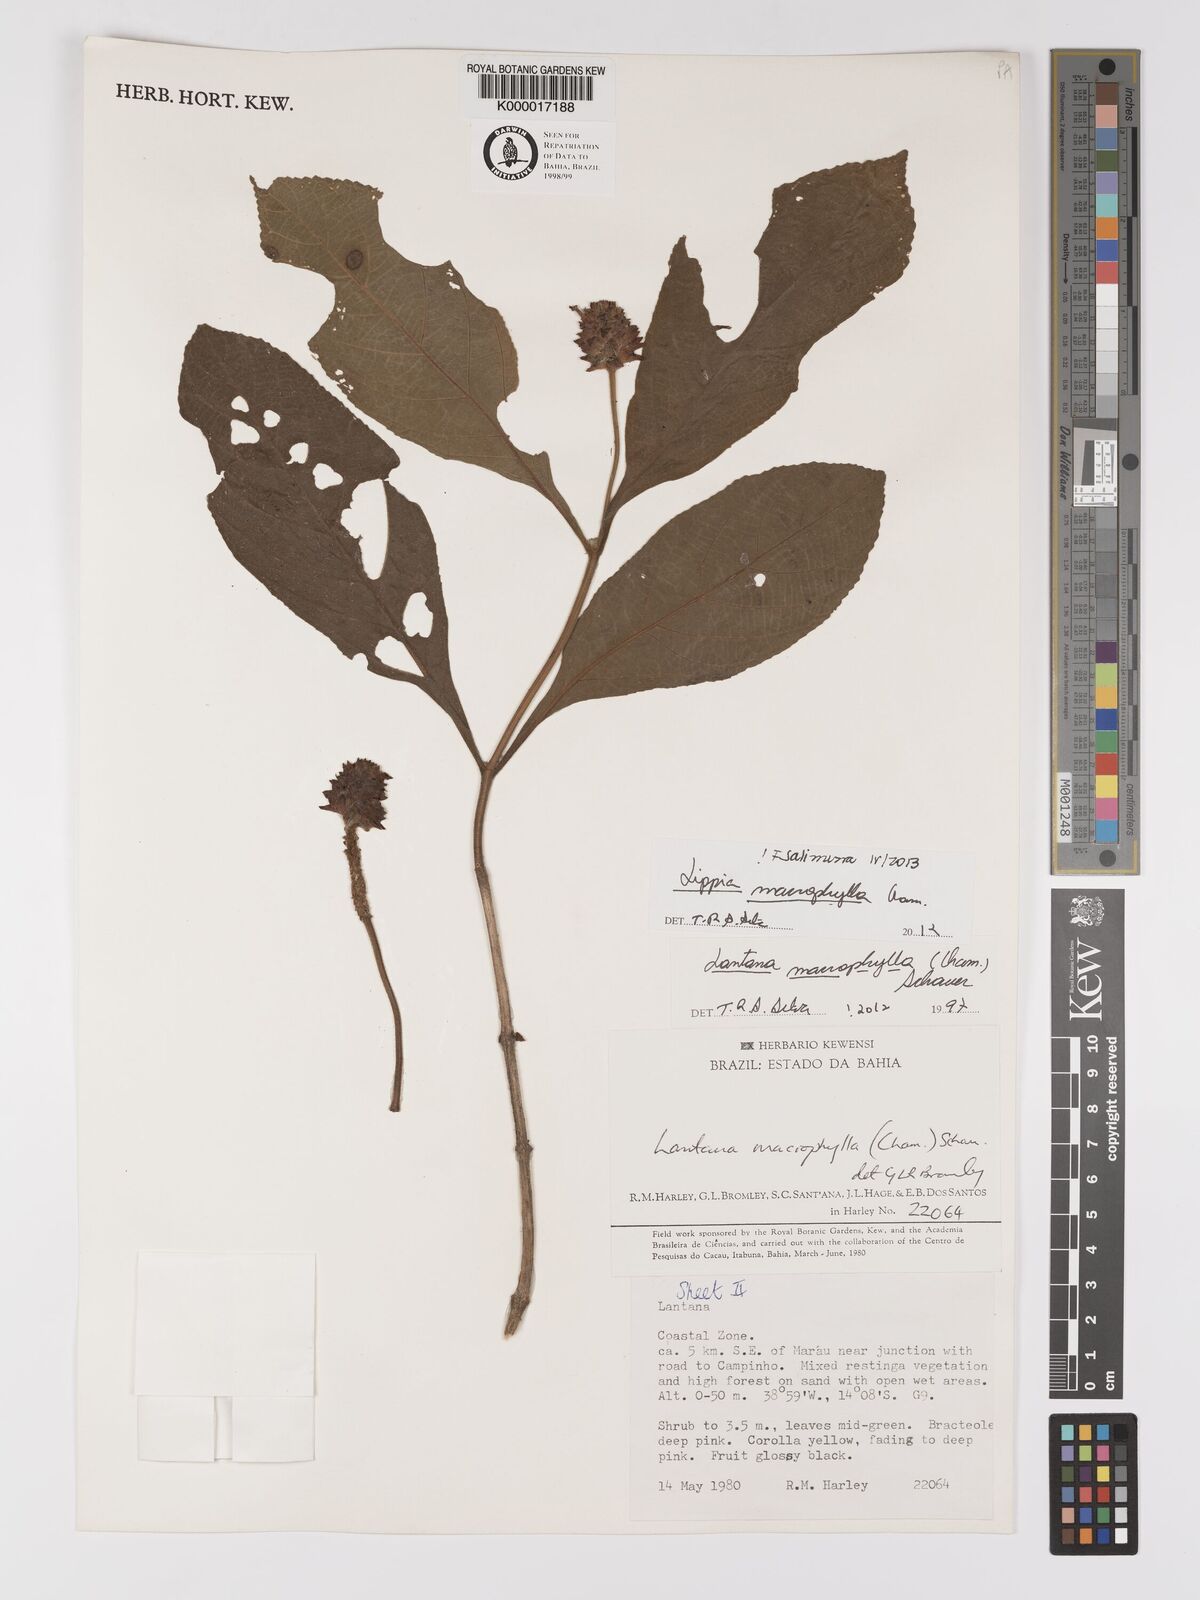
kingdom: Plantae
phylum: Tracheophyta
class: Magnoliopsida
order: Lamiales
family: Verbenaceae
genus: Lippia
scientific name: Lippia macrophylla
